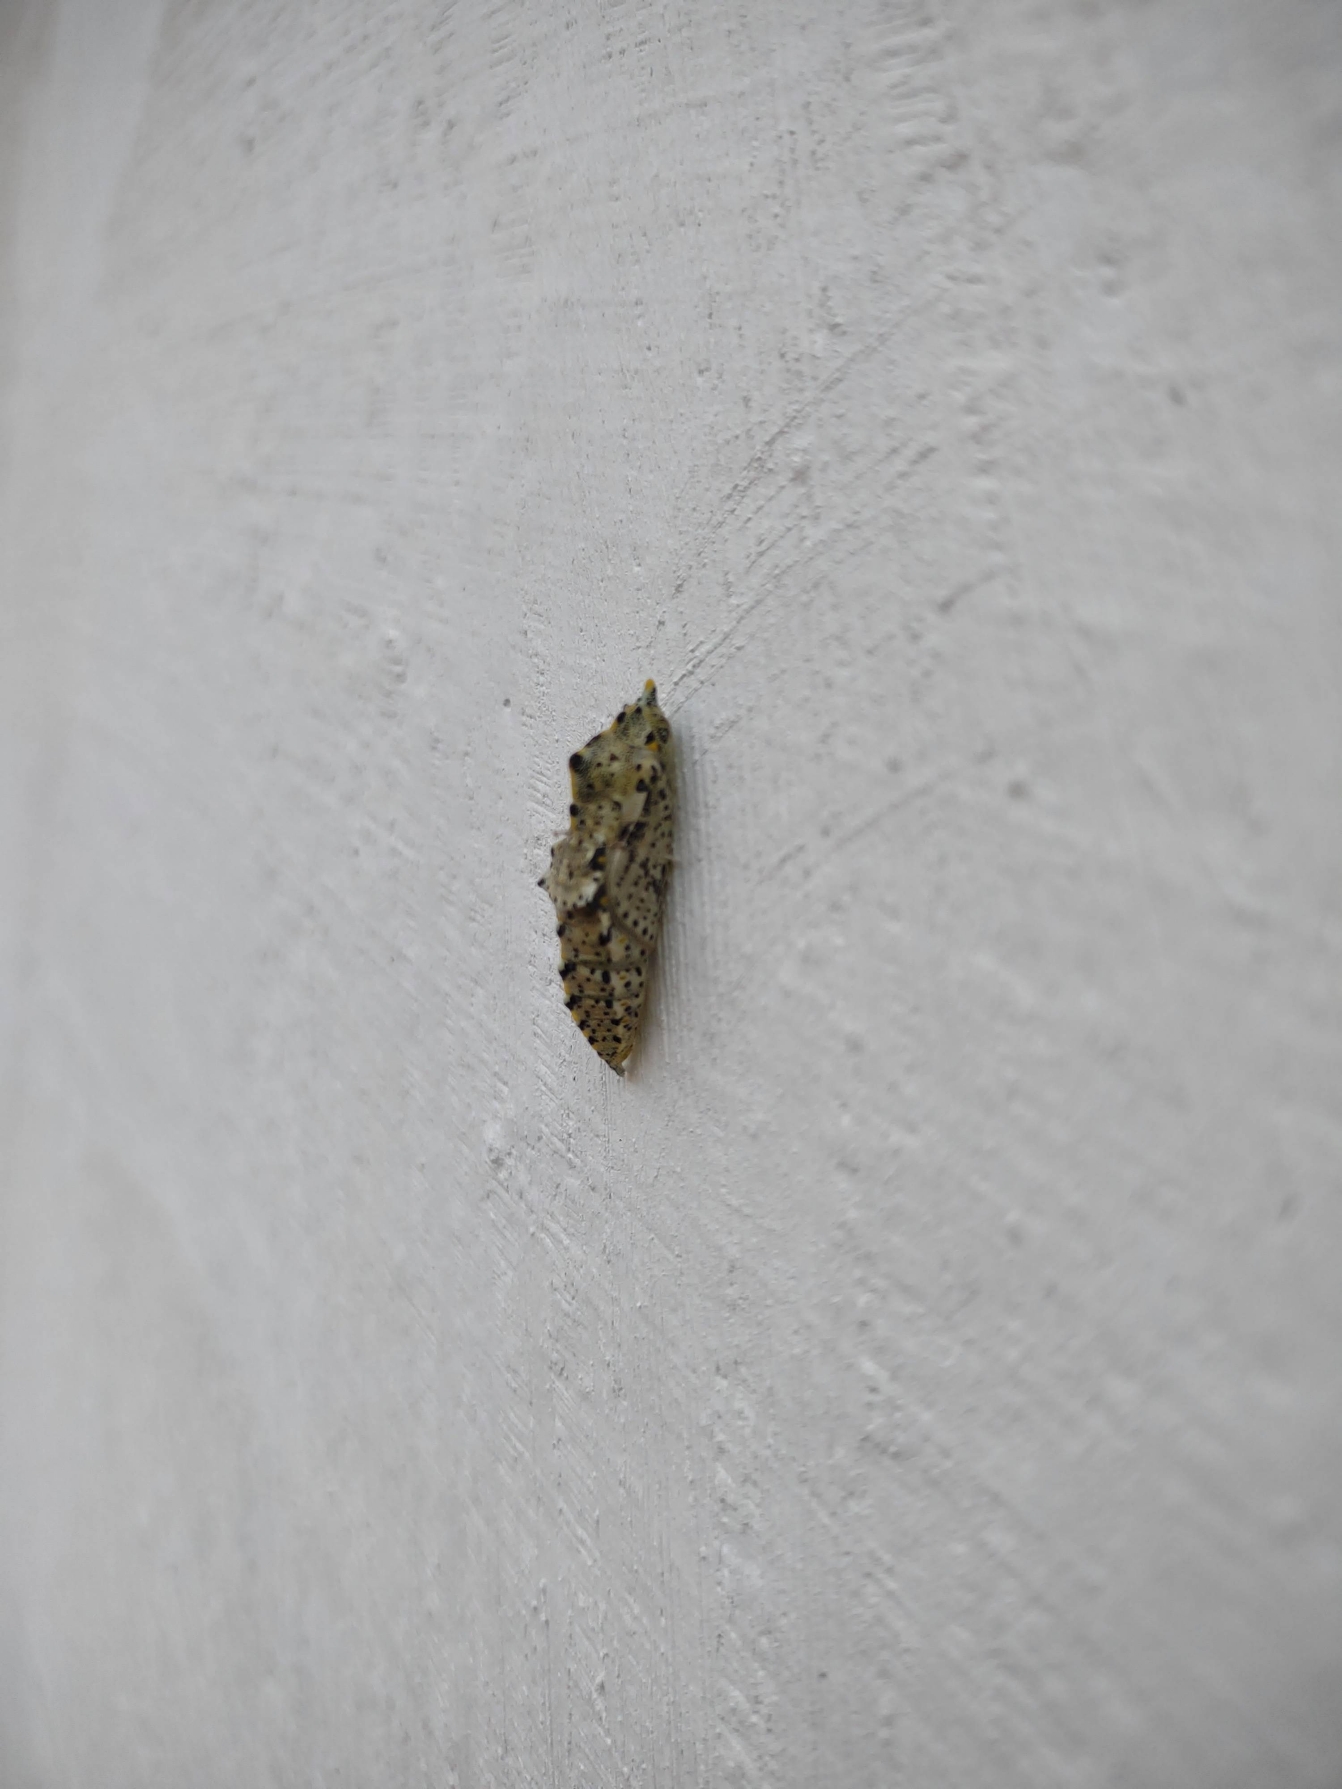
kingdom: Animalia
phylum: Arthropoda
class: Insecta
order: Lepidoptera
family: Pieridae
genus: Pieris
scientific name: Pieris brassicae
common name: Stor kålsommerfugl
